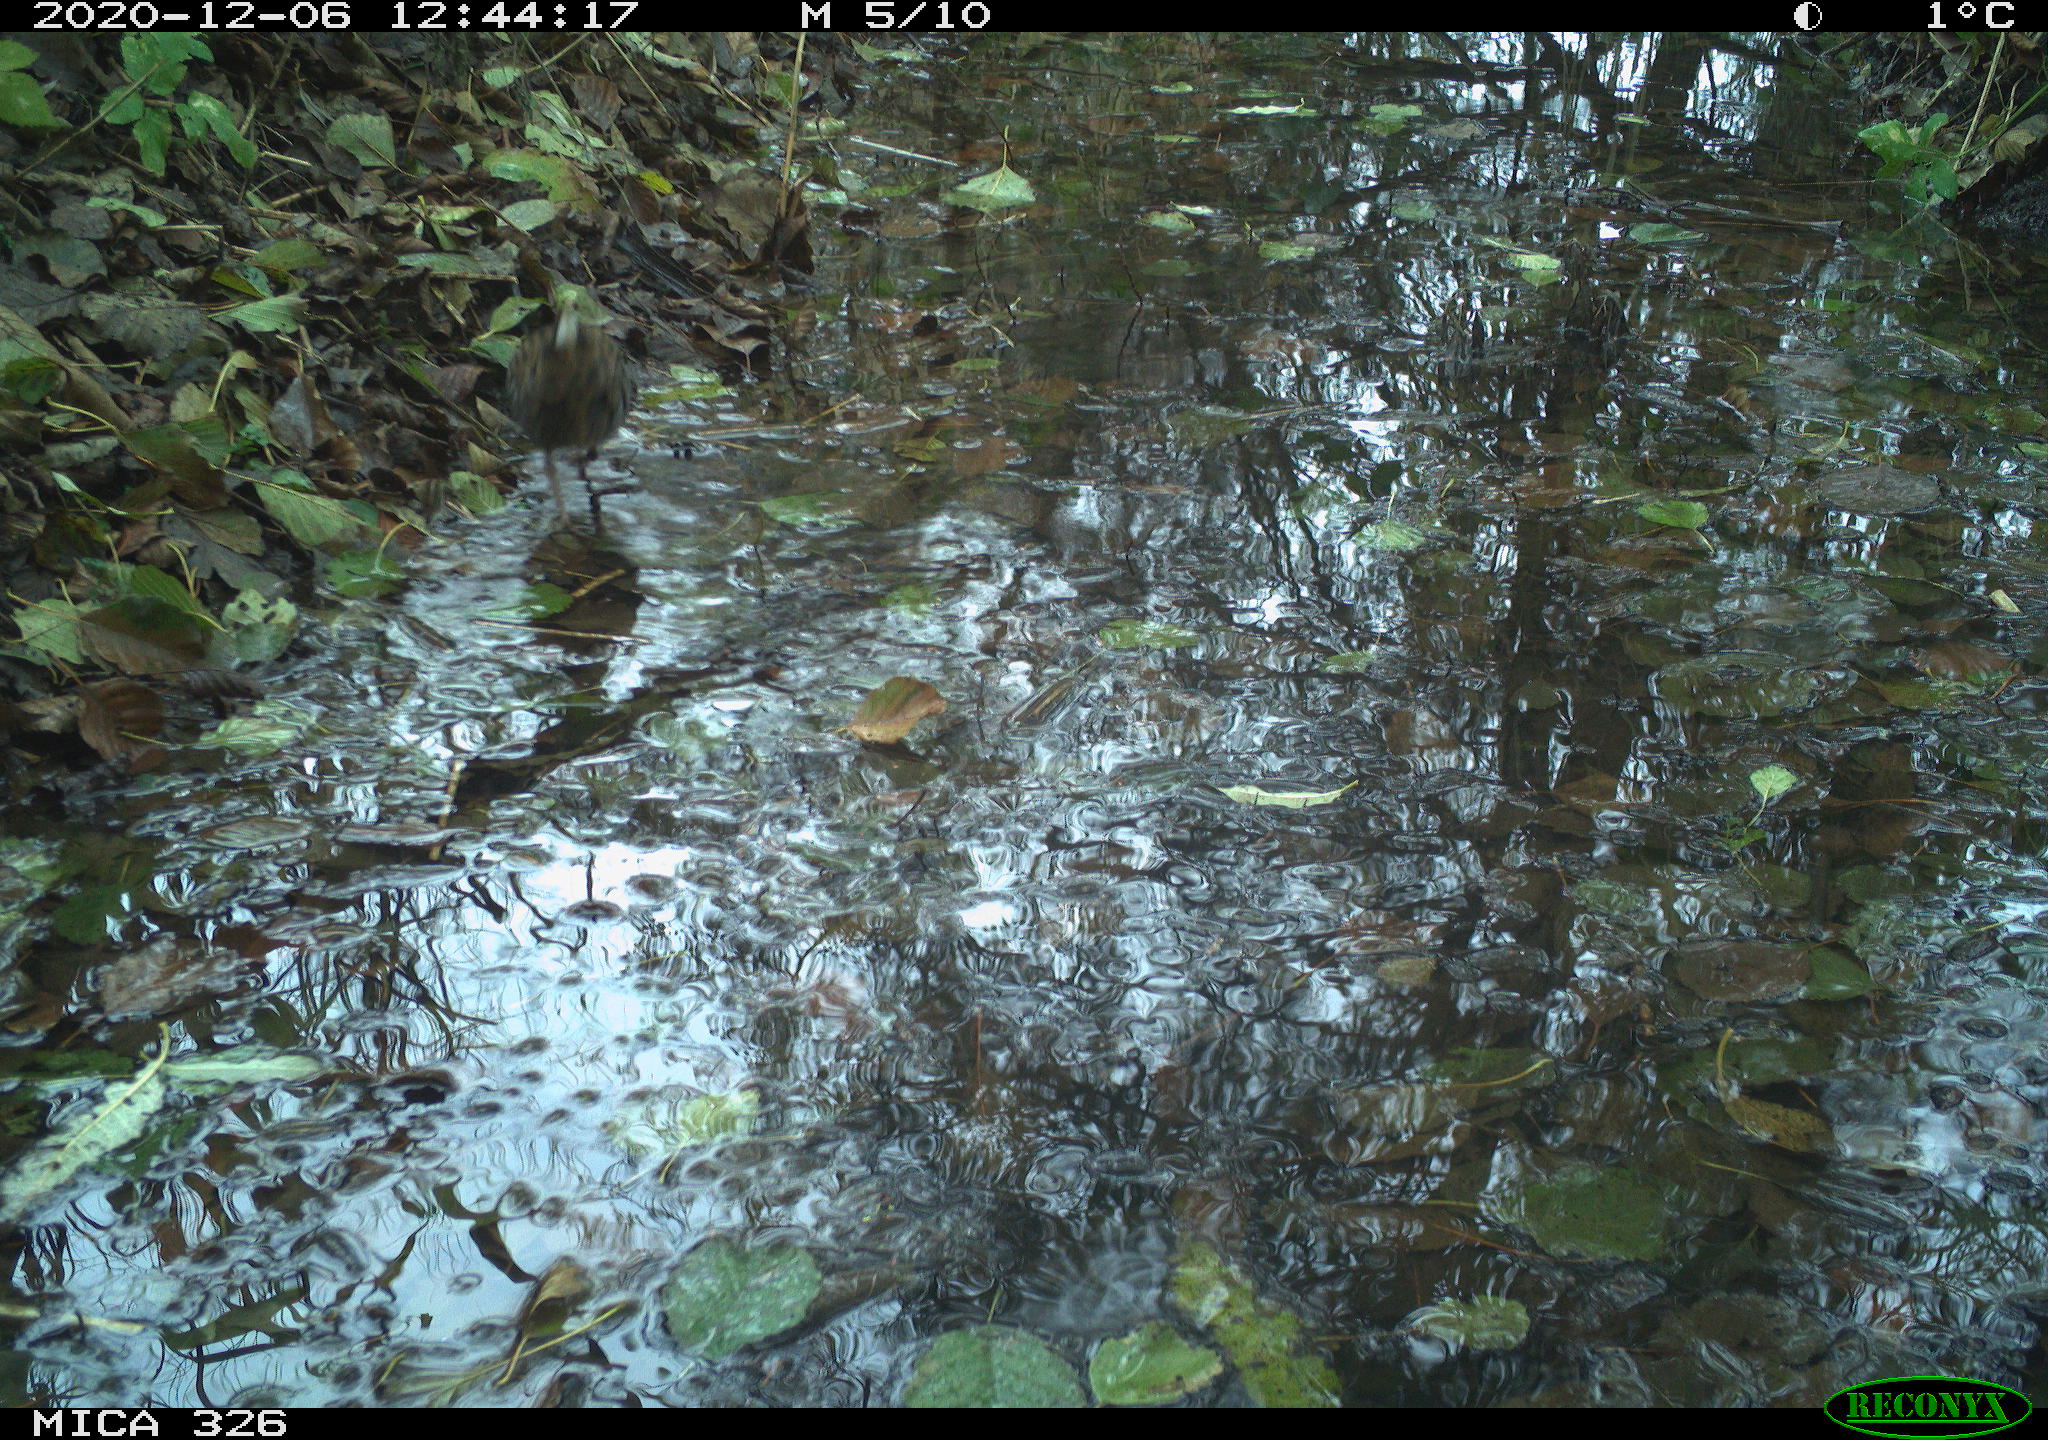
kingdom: Animalia
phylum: Chordata
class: Aves
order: Gruiformes
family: Rallidae
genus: Rallus
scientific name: Rallus aquaticus
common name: Water rail
